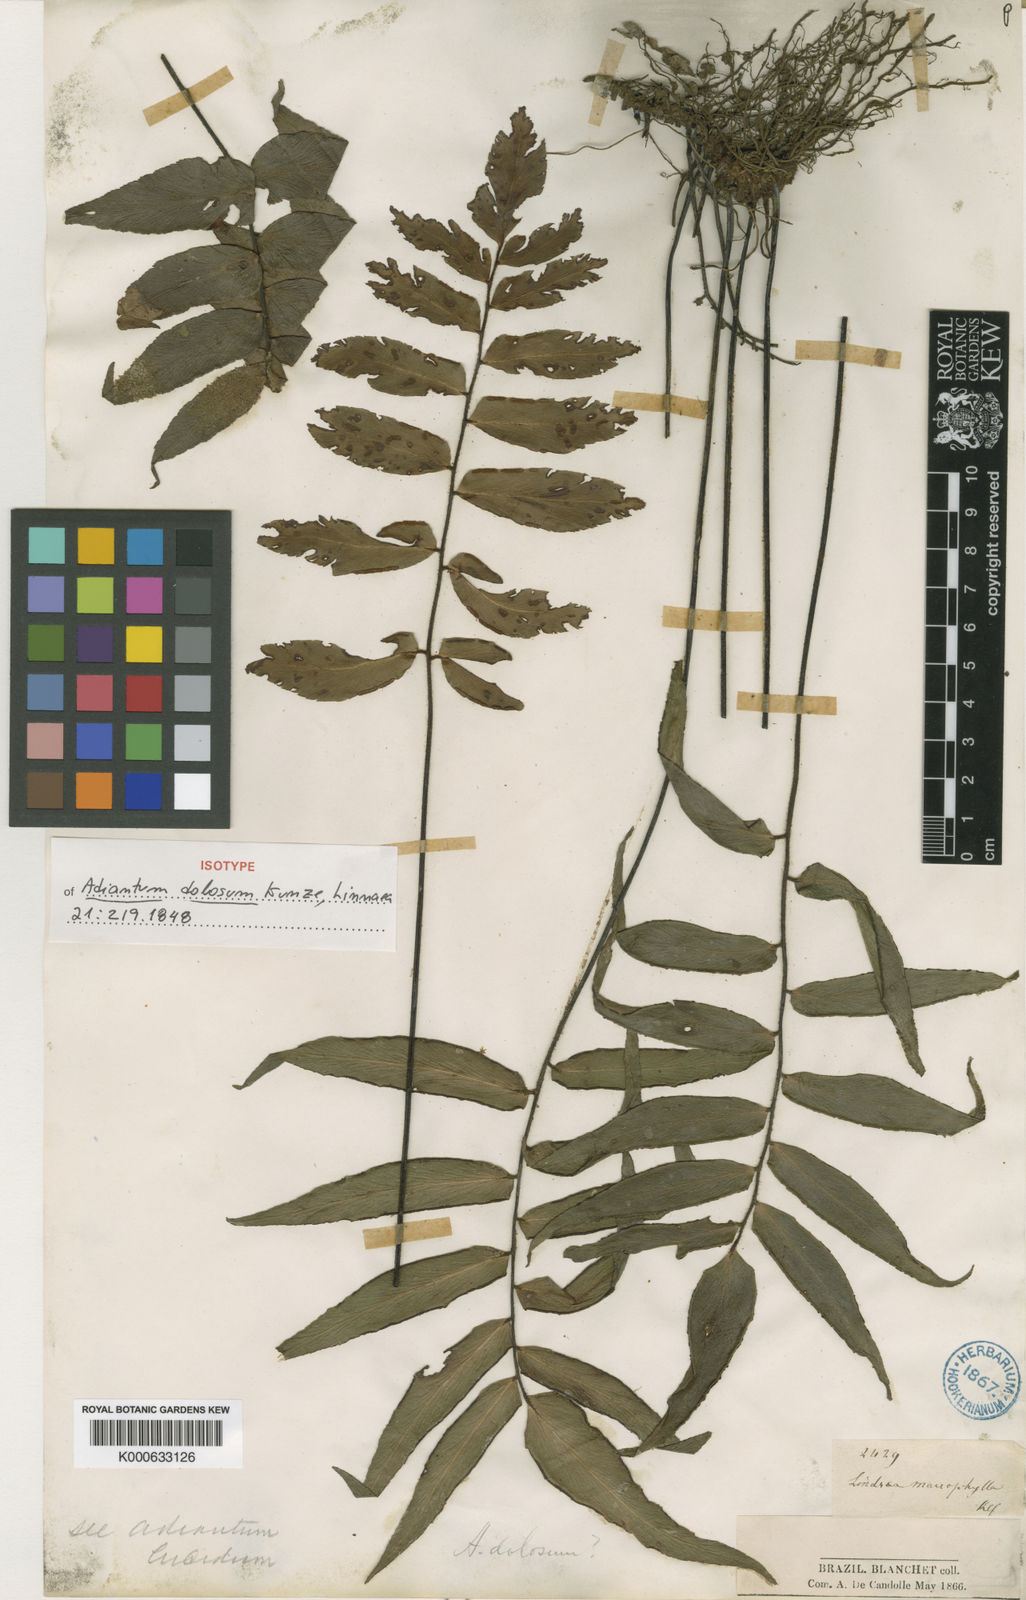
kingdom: Plantae
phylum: Tracheophyta
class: Polypodiopsida
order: Polypodiales
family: Pteridaceae
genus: Adiantum
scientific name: Adiantum dolosum
